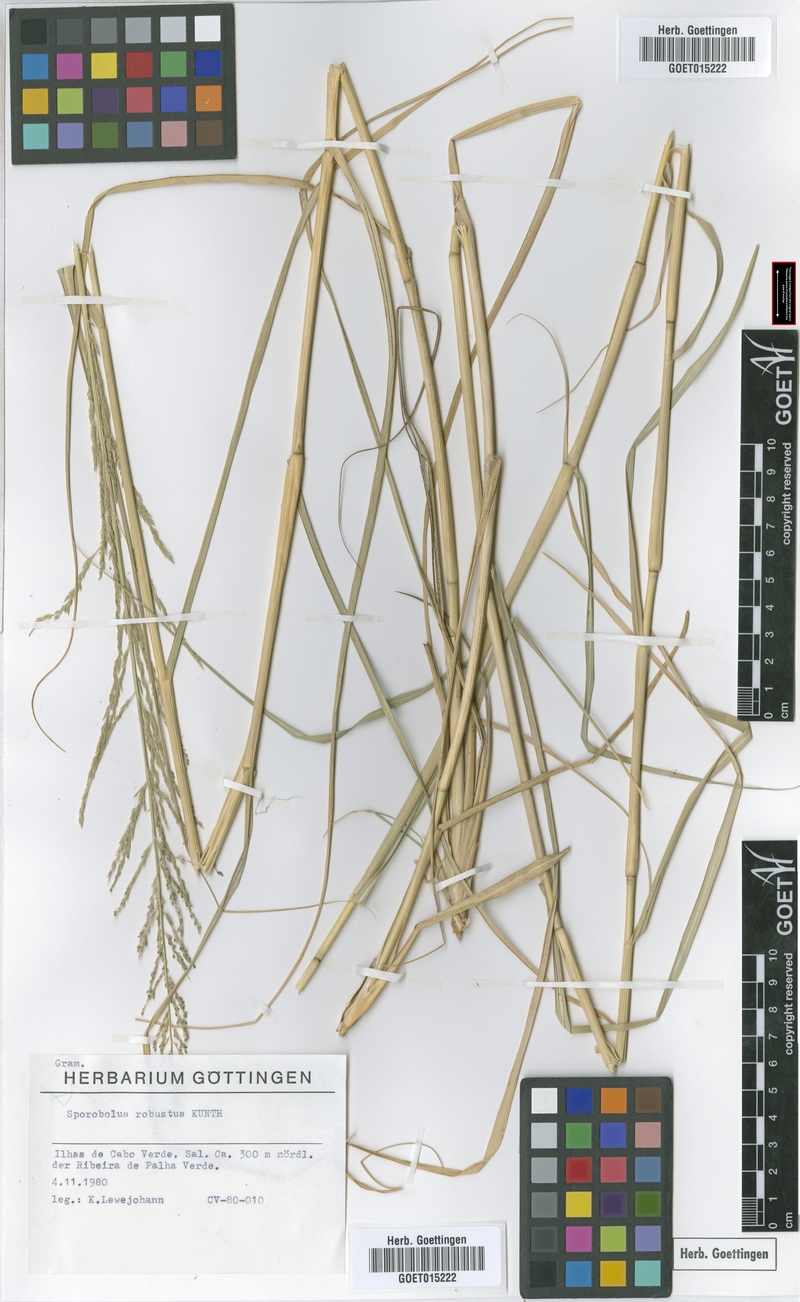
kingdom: Plantae
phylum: Tracheophyta
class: Liliopsida
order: Poales
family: Poaceae
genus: Sporobolus
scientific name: Sporobolus robustus
